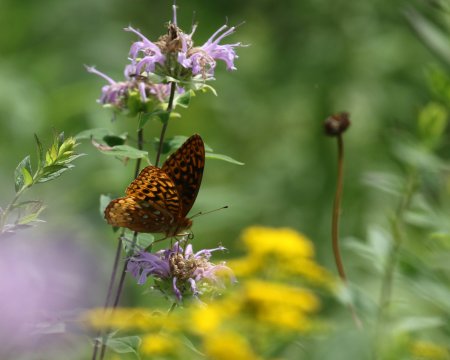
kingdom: Animalia
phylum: Arthropoda
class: Insecta
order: Lepidoptera
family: Nymphalidae
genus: Speyeria
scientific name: Speyeria cybele
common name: Great Spangled Fritillary
